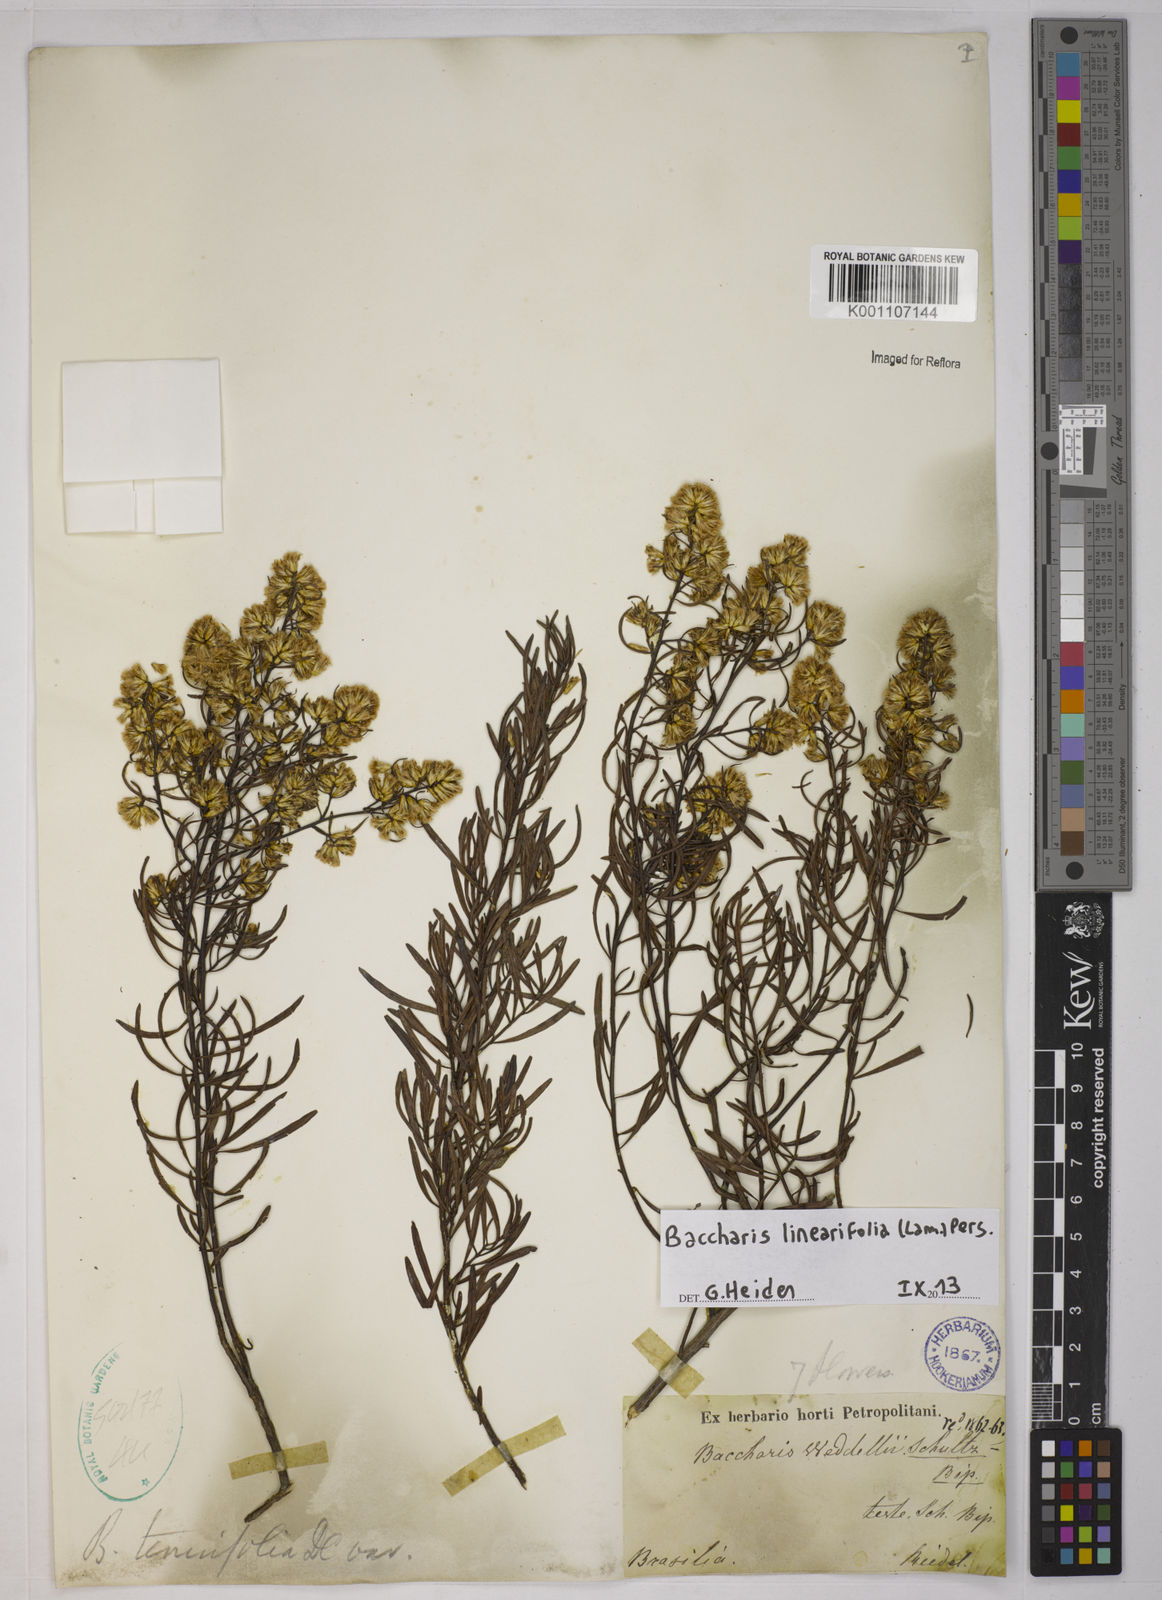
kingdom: Plantae
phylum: Tracheophyta
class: Magnoliopsida
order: Asterales
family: Asteraceae
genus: Baccharis
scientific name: Baccharis linearifolia
